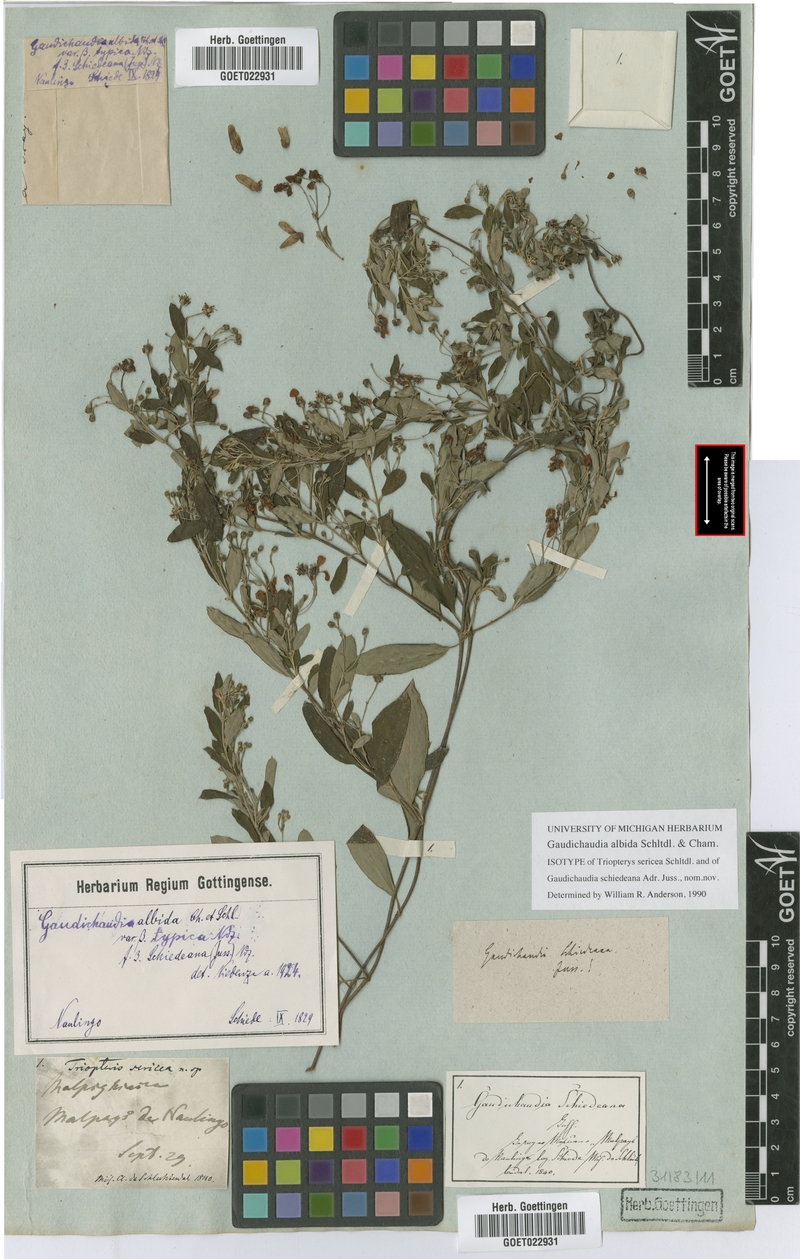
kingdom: Plantae
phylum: Tracheophyta
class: Magnoliopsida
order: Malpighiales
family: Malpighiaceae
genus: Gaudichaudia
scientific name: Gaudichaudia albida
